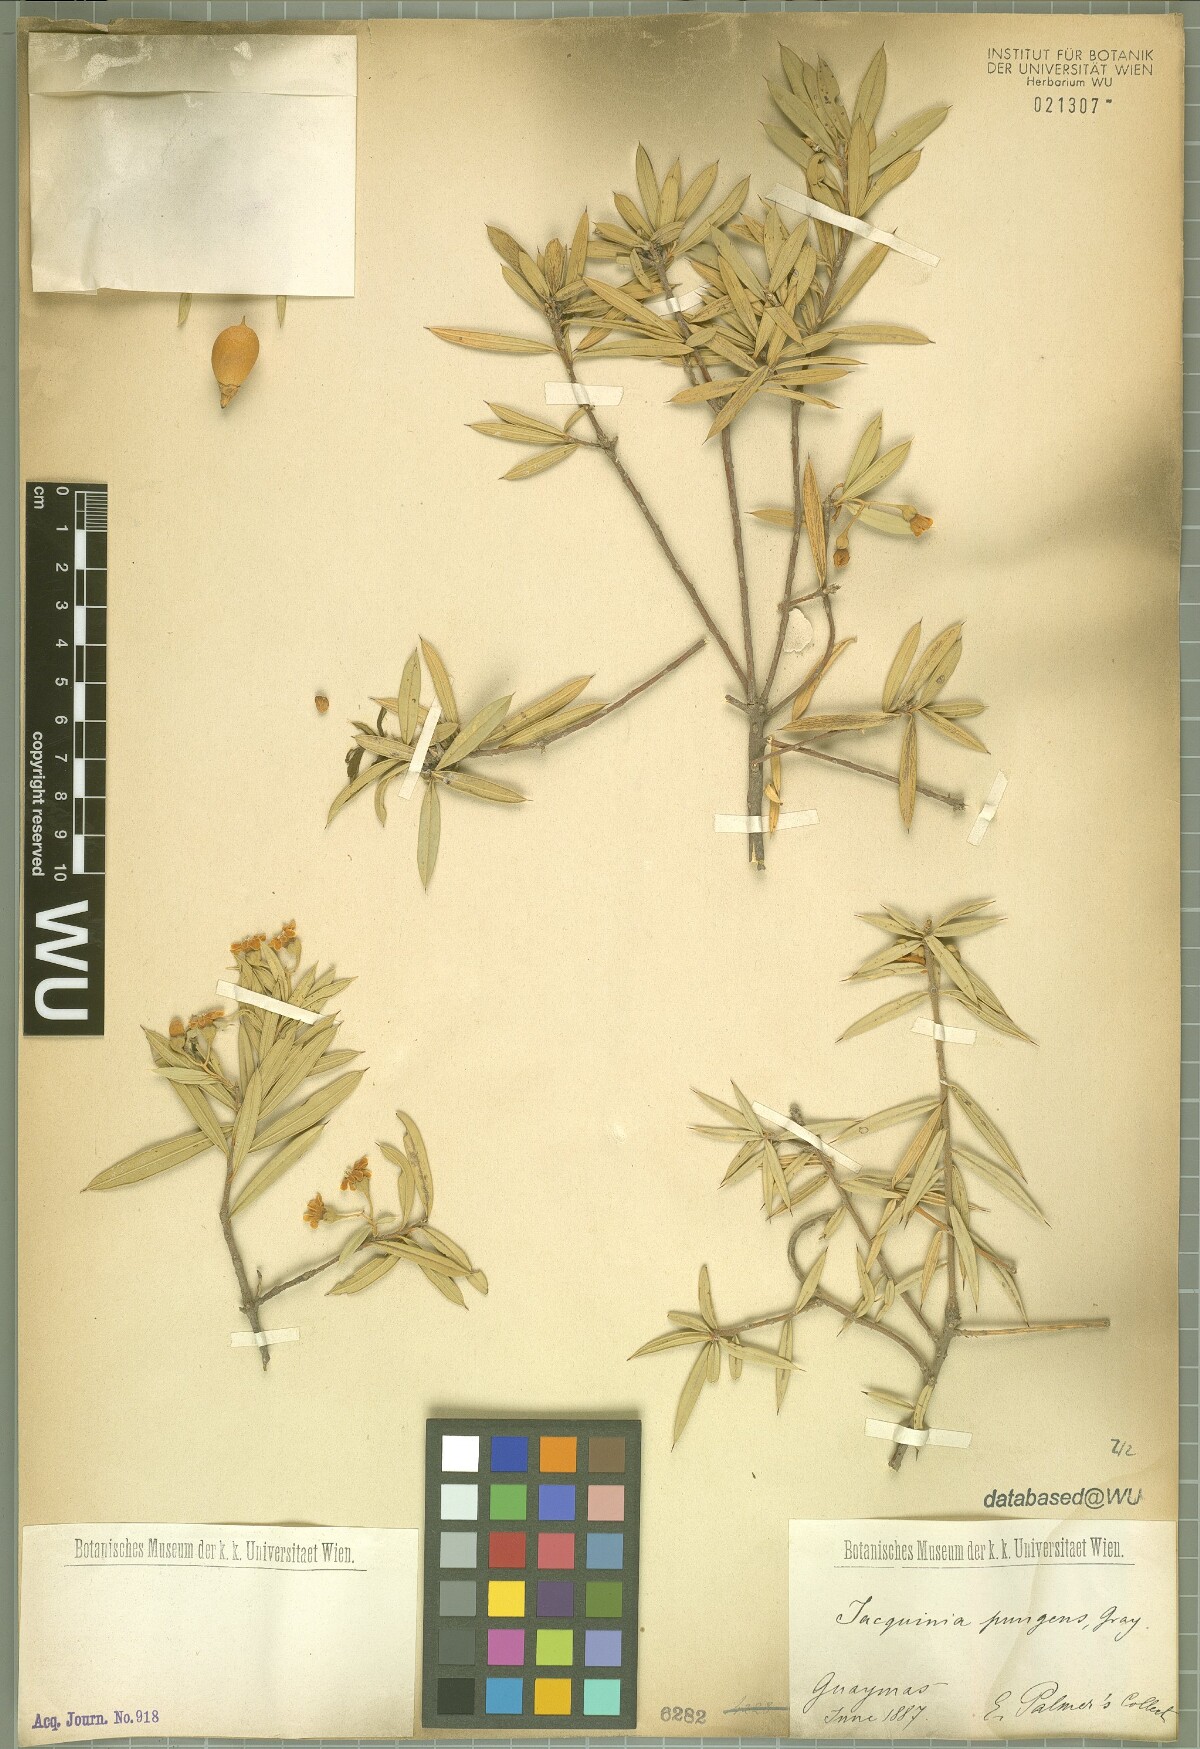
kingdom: Plantae
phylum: Tracheophyta
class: Magnoliopsida
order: Ericales
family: Primulaceae
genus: Bonellia
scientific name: Bonellia macrocarpa
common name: Primrose
